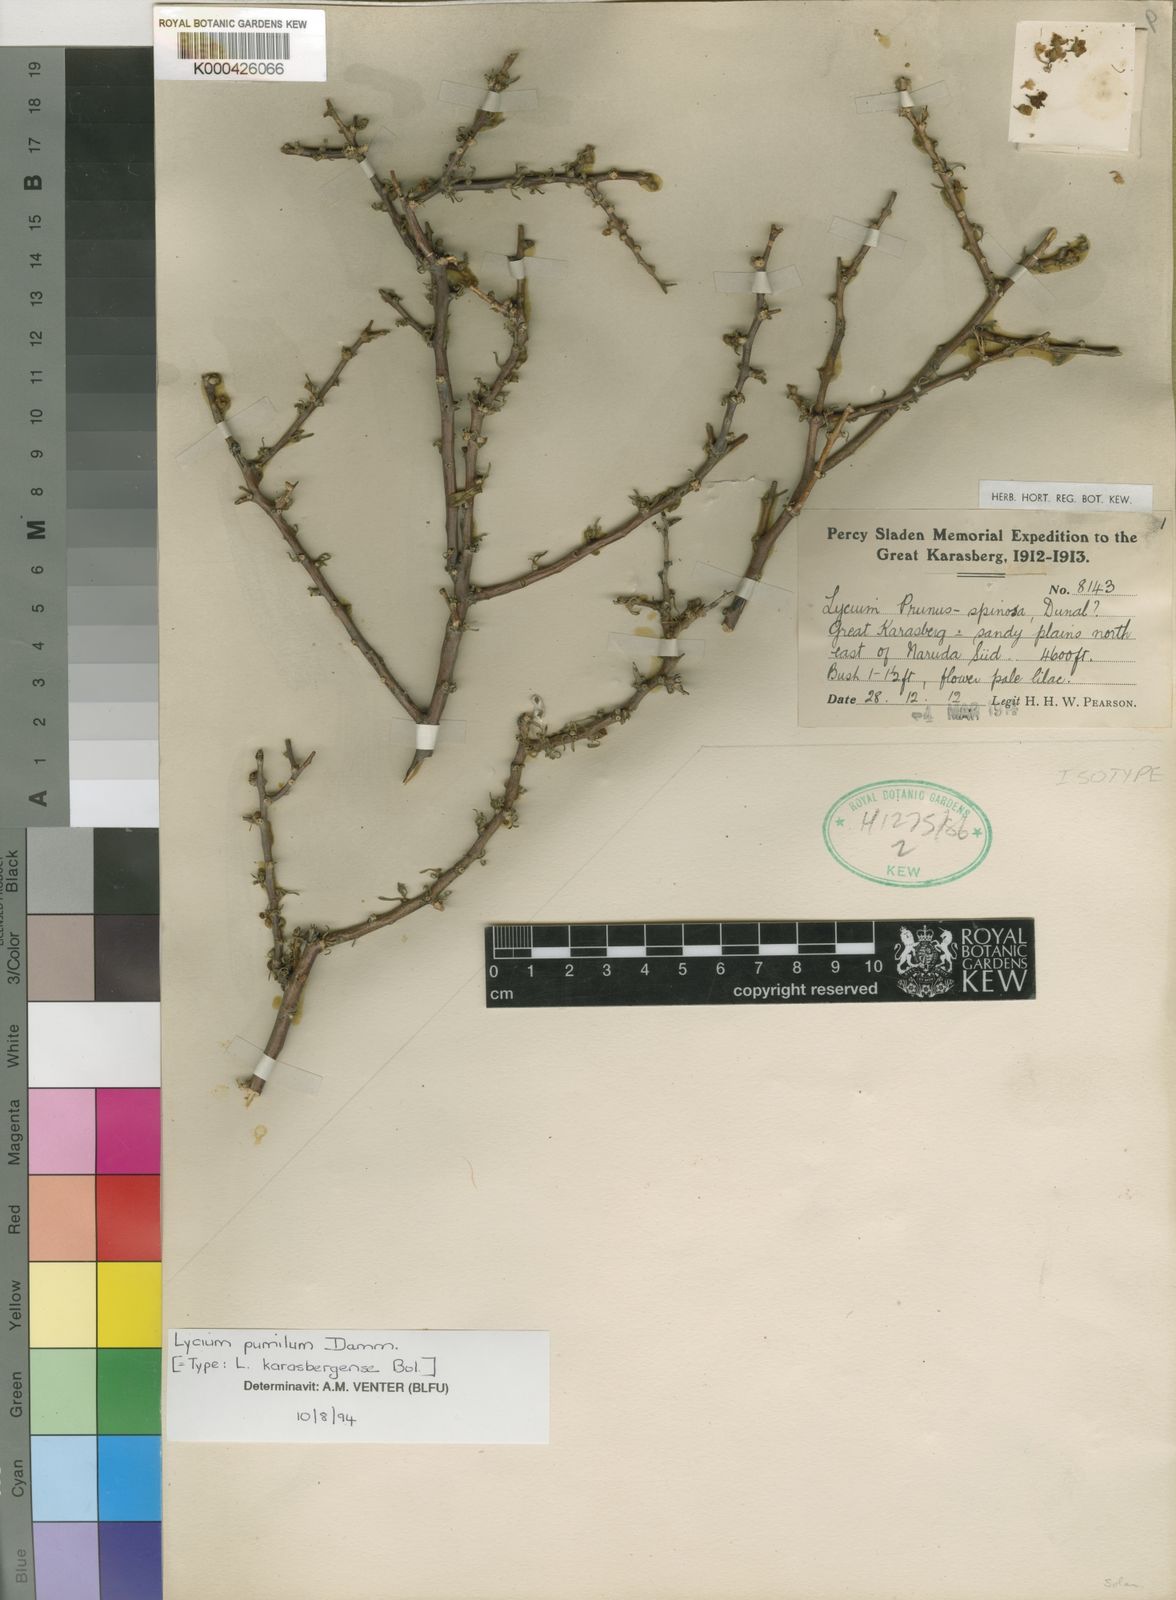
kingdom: Plantae
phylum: Tracheophyta
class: Magnoliopsida
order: Solanales
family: Solanaceae
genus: Lycium
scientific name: Lycium cinereum
